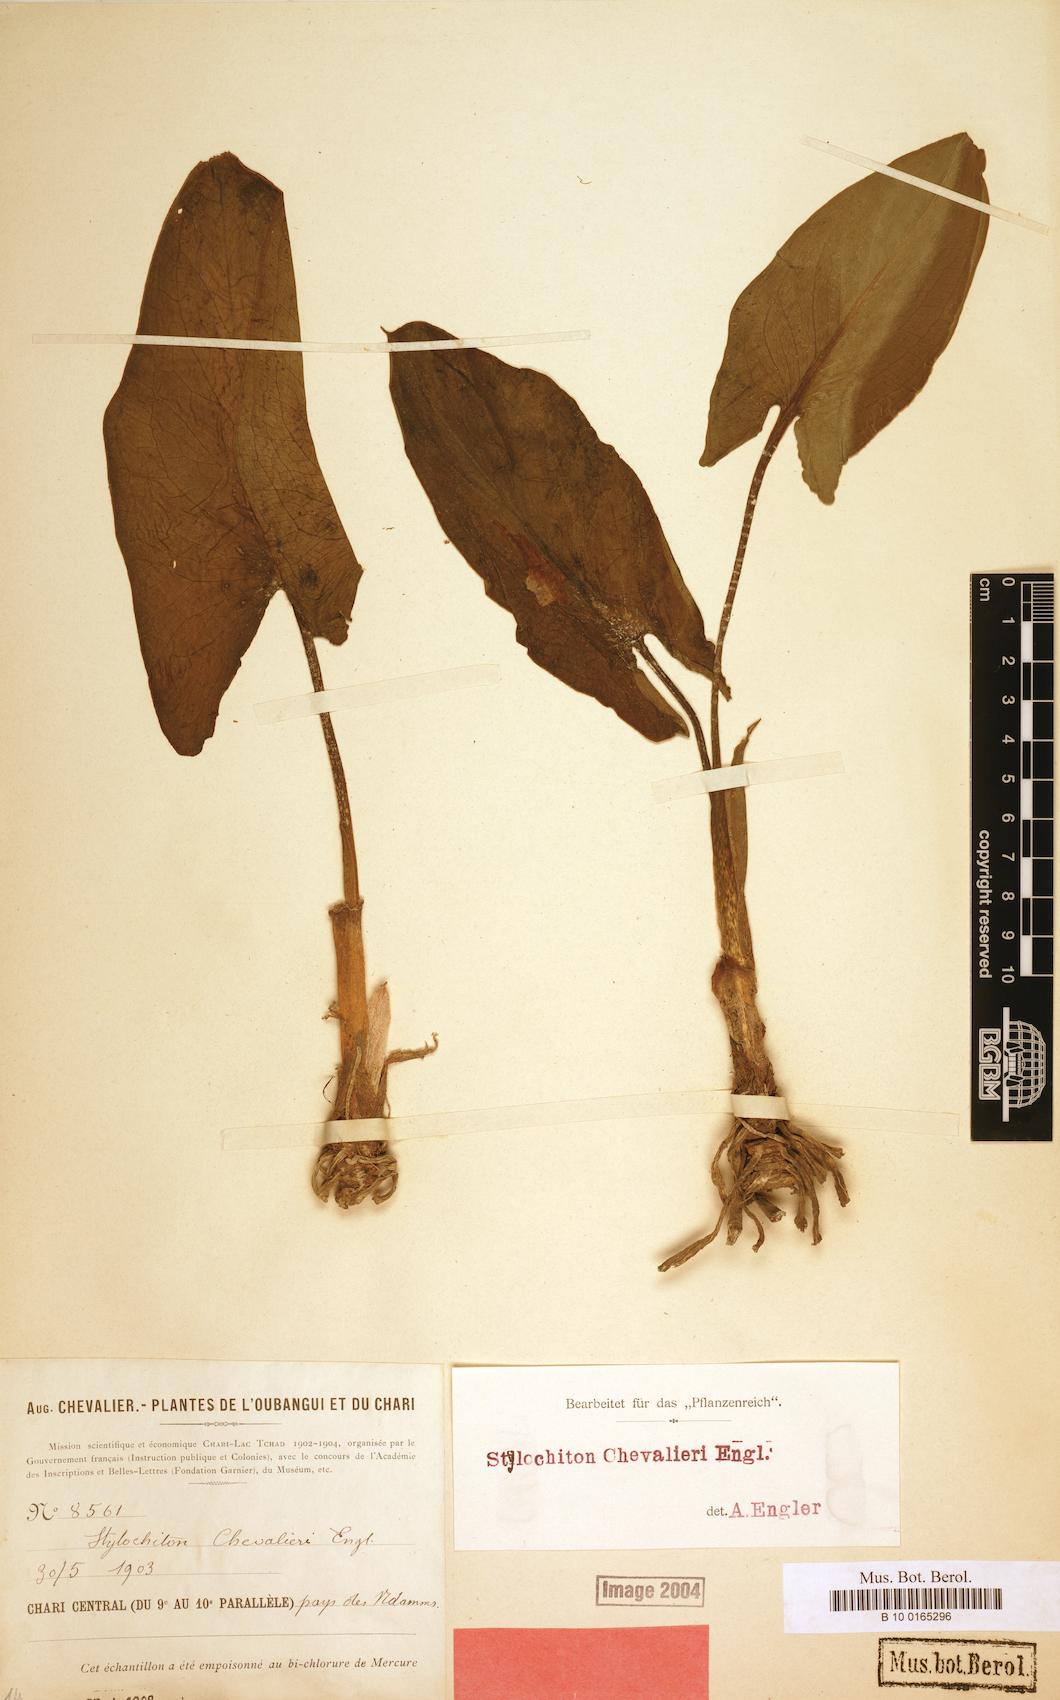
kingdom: Plantae
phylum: Tracheophyta
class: Liliopsida
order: Alismatales
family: Araceae
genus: Stylochiton
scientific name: Stylochiton chevalieri
